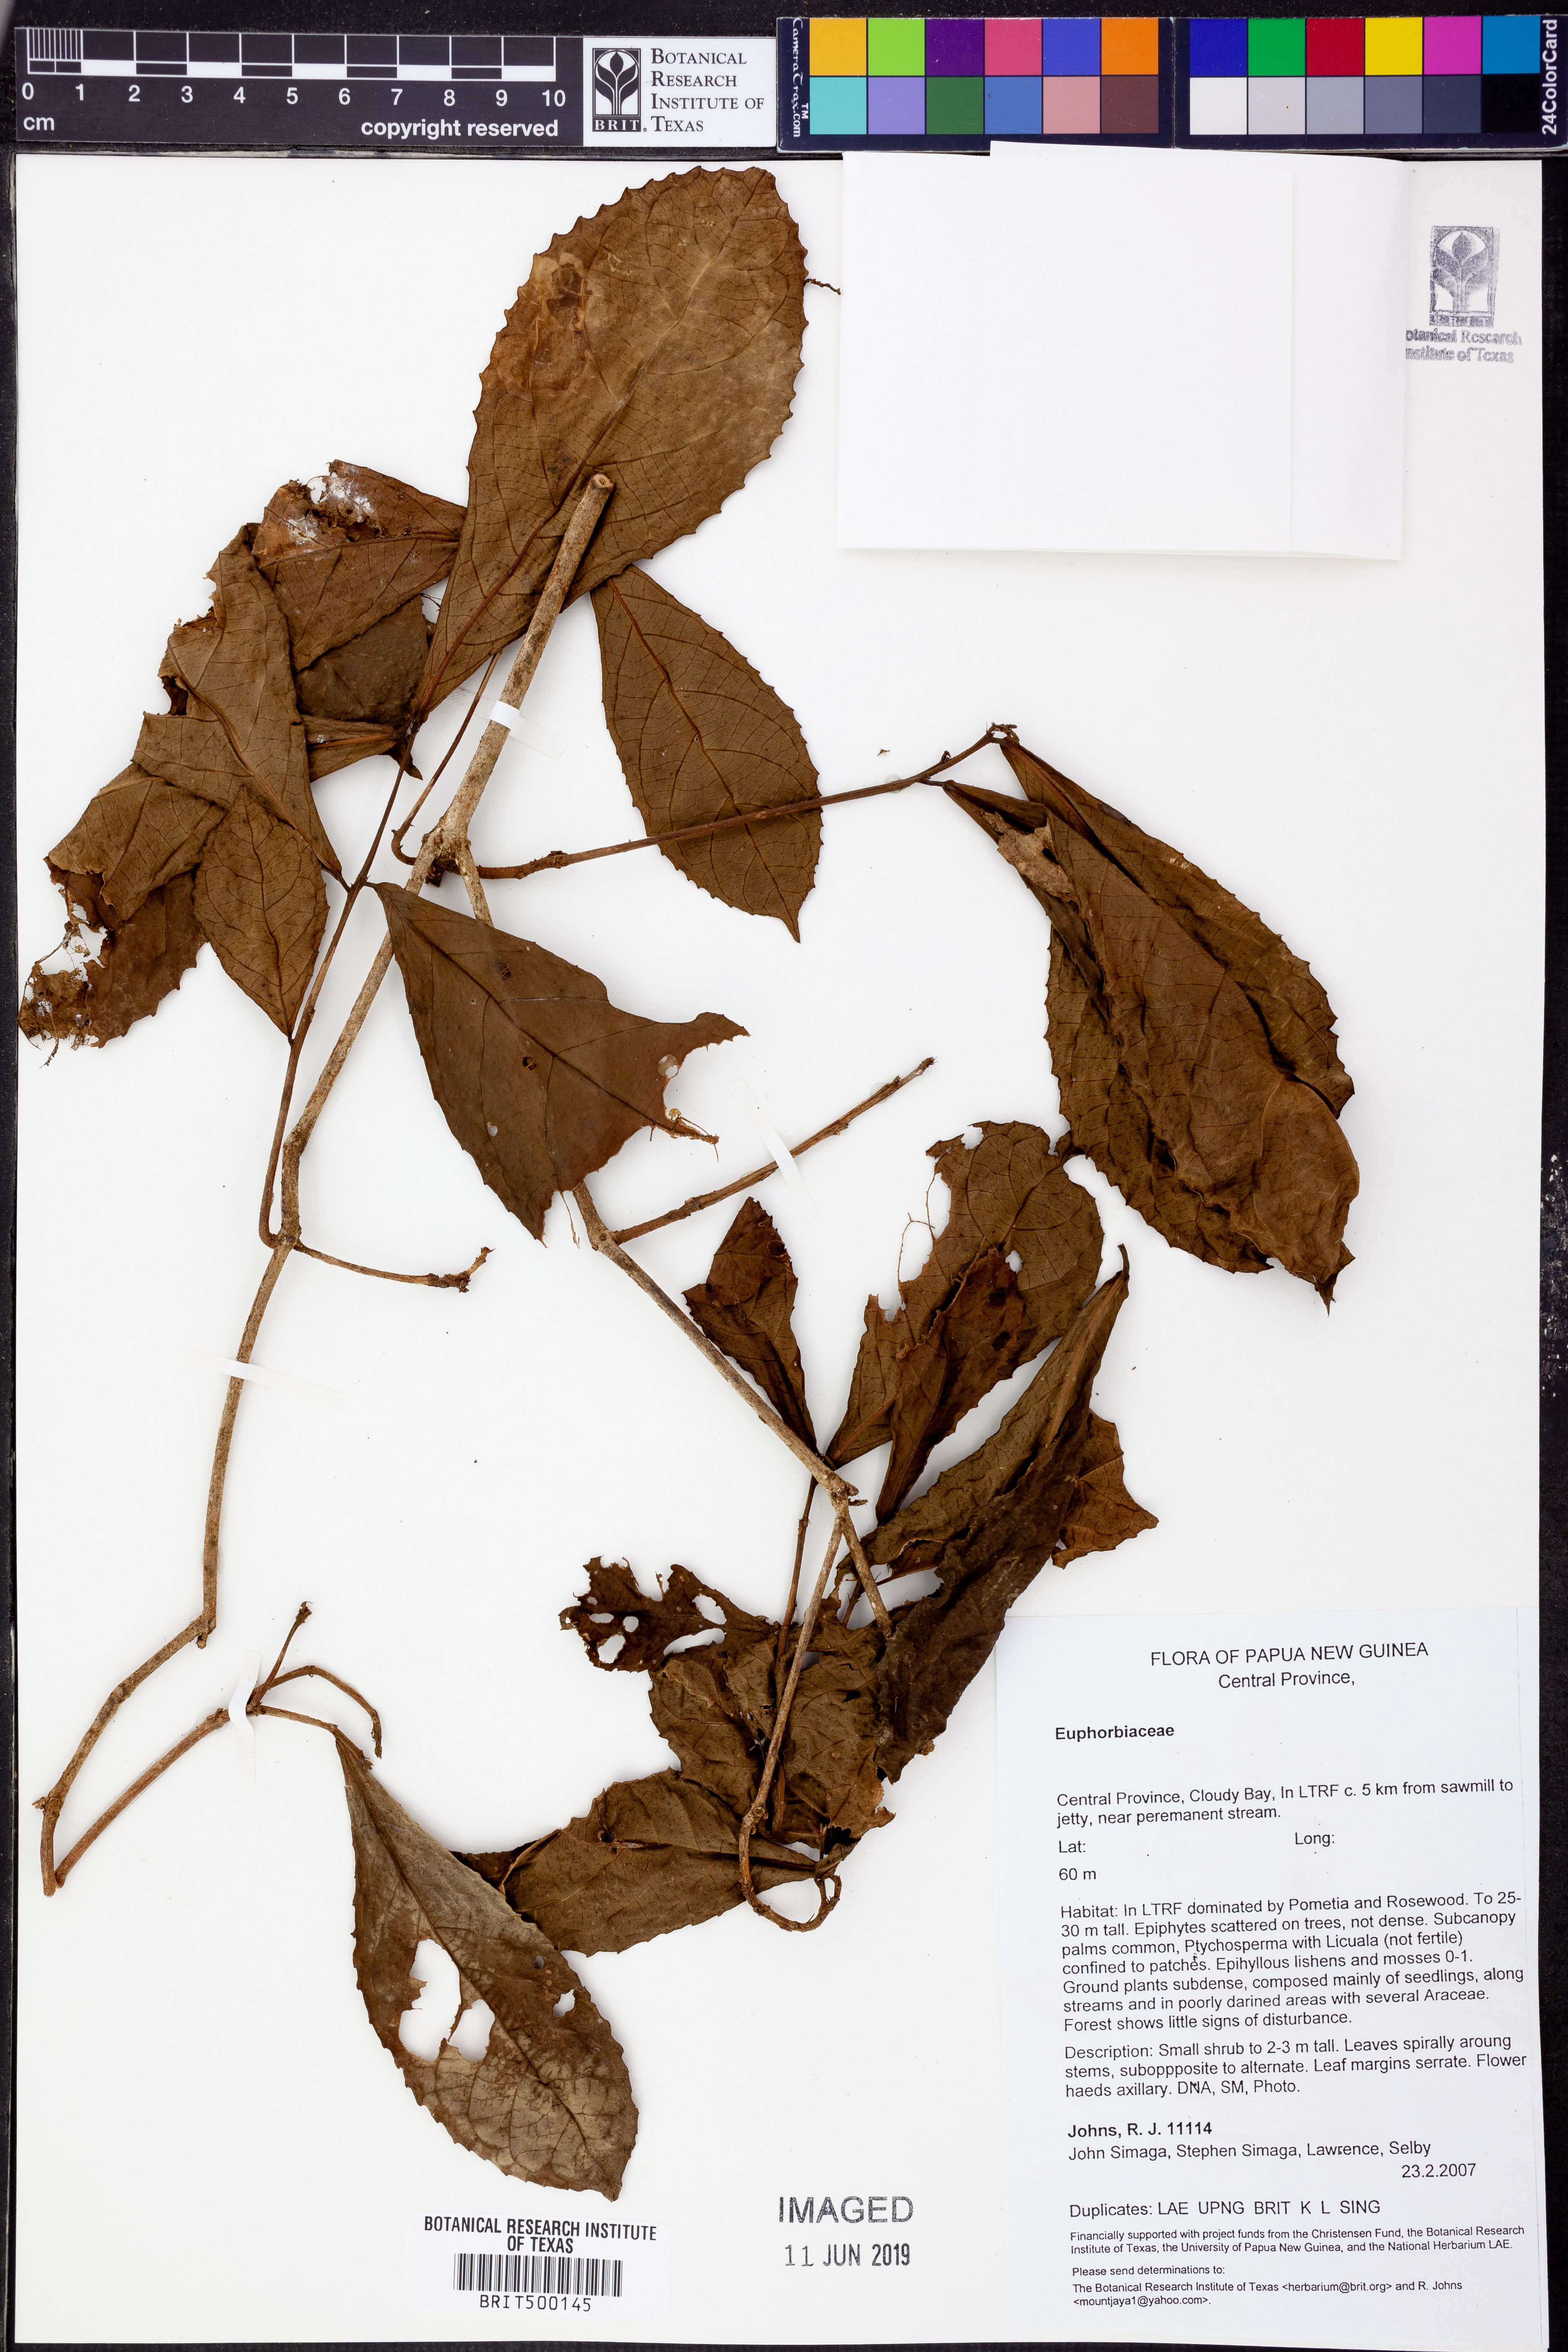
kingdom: Plantae
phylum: Tracheophyta
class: Magnoliopsida
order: Malpighiales
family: Euphorbiaceae
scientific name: Euphorbiaceae
